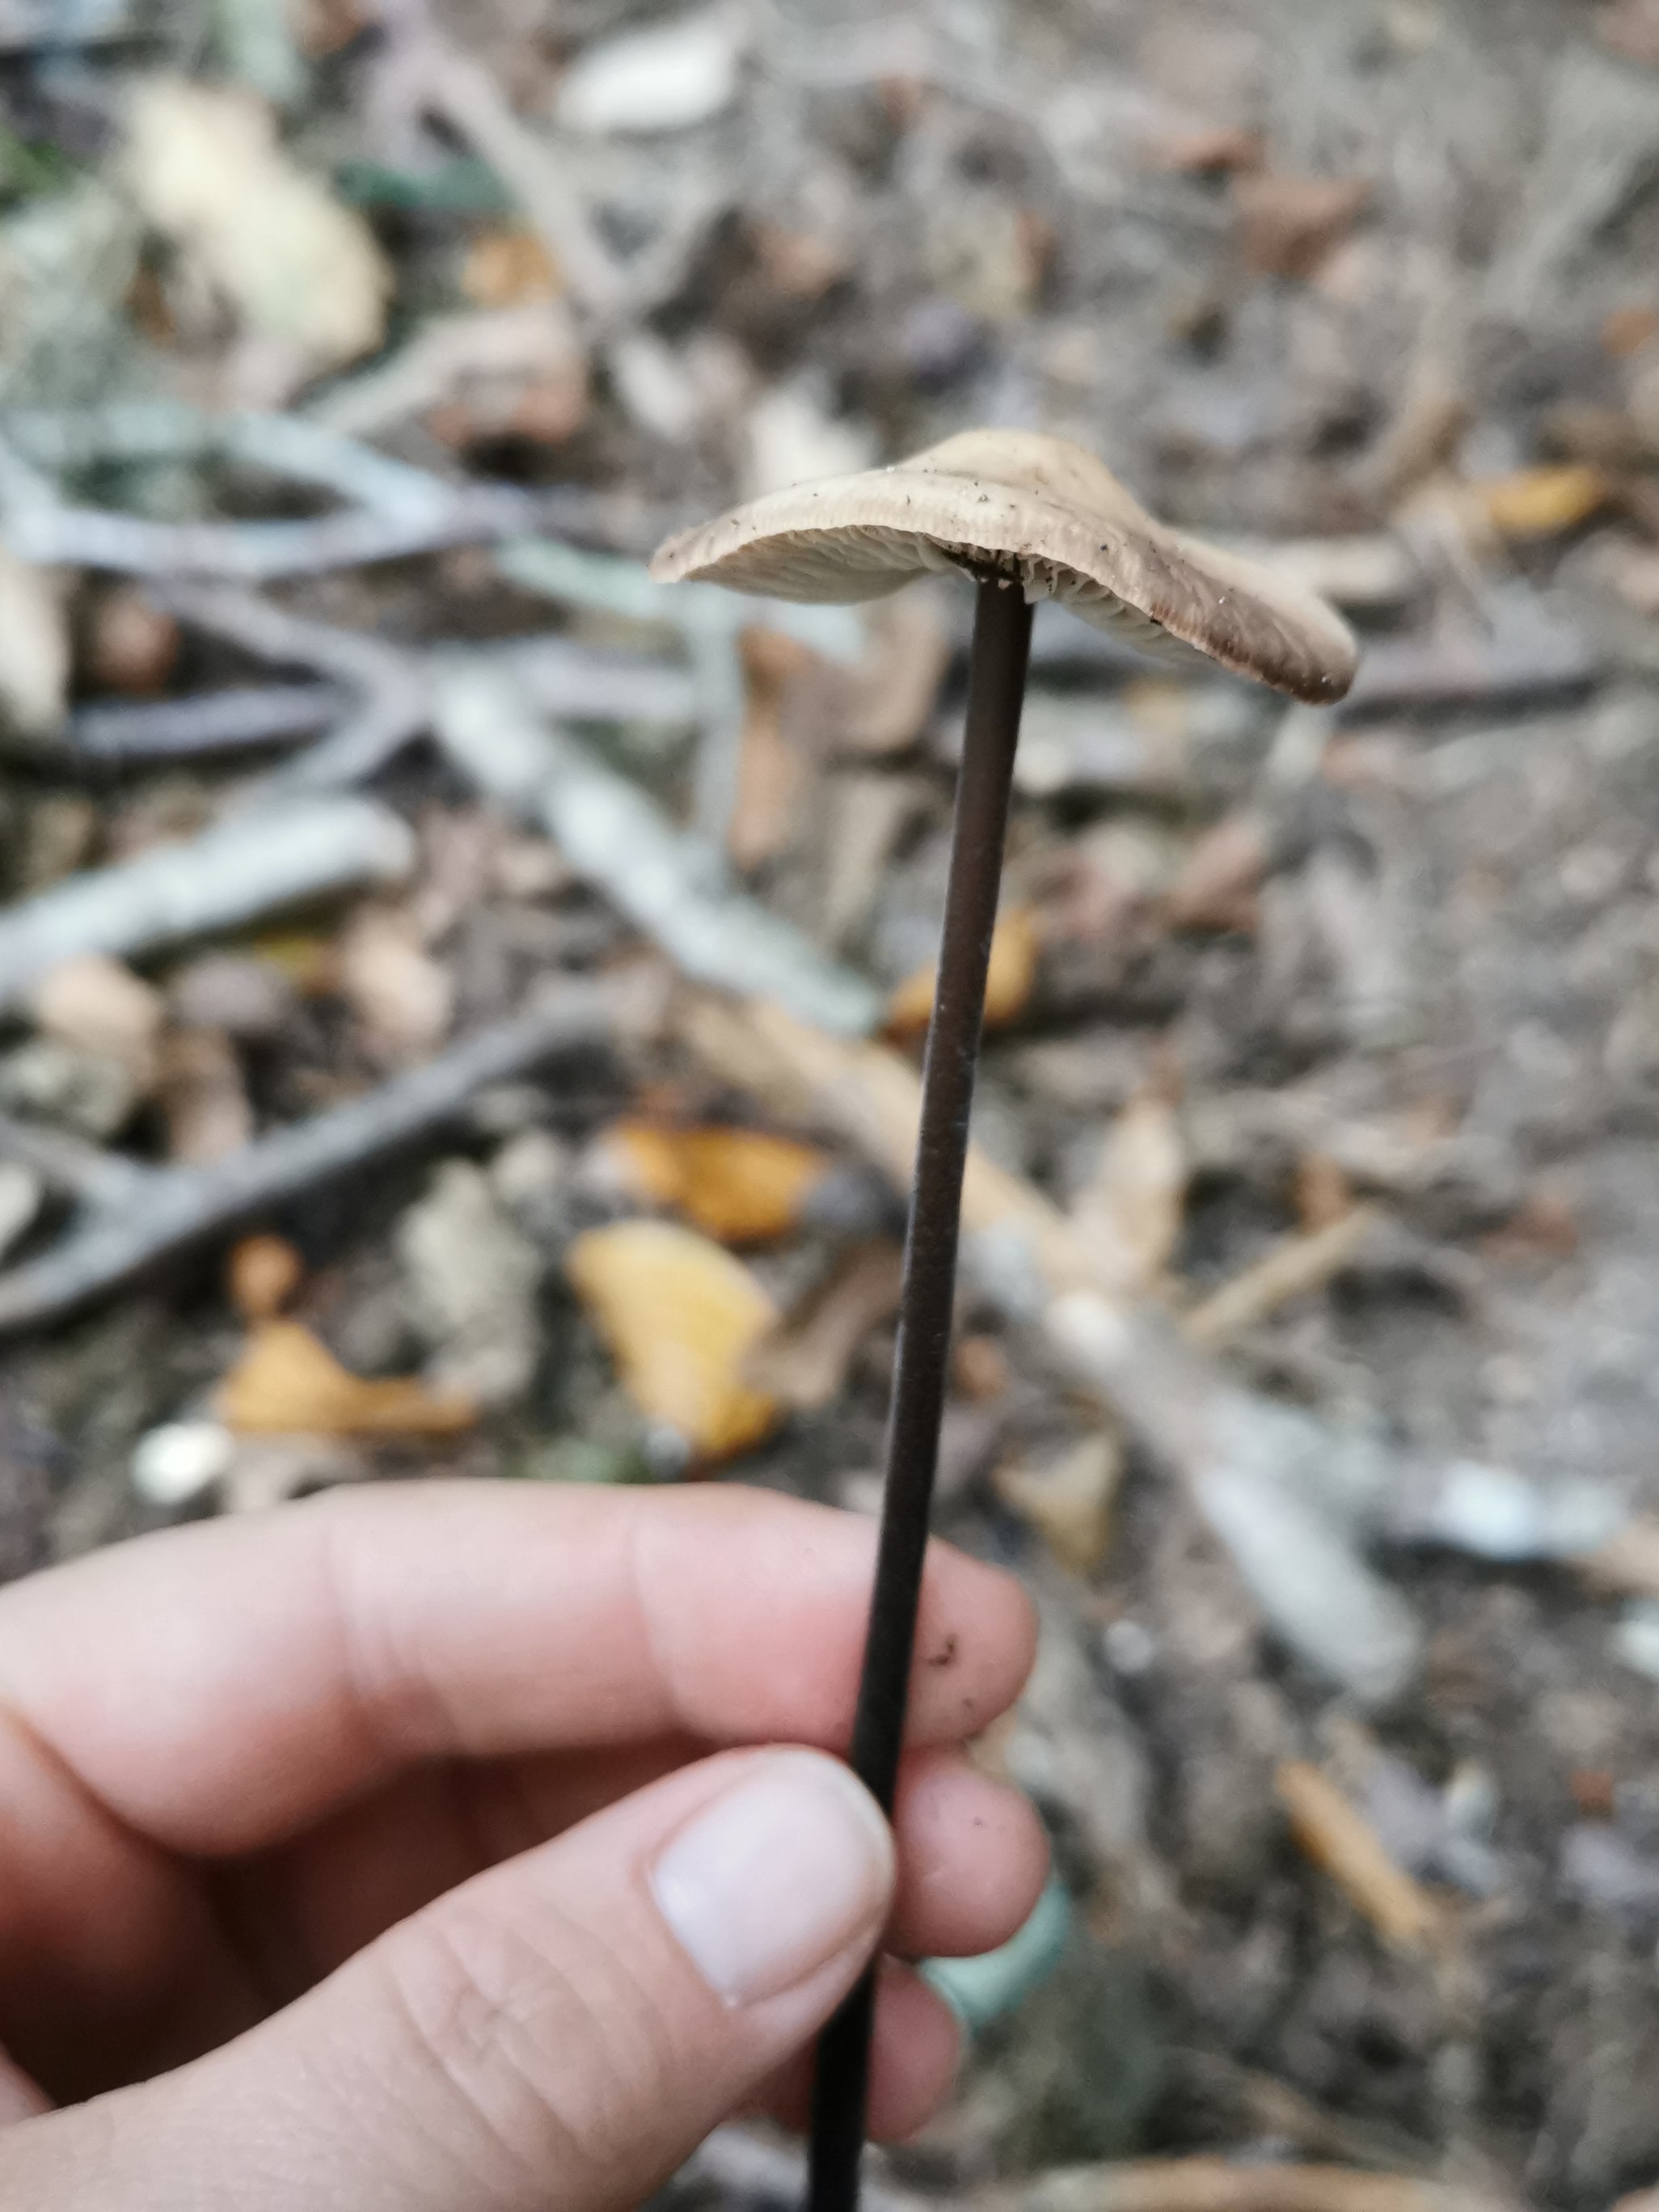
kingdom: Fungi
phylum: Basidiomycota
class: Agaricomycetes
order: Agaricales
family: Omphalotaceae
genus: Mycetinis
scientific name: Mycetinis alliaceus
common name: stor løghat
